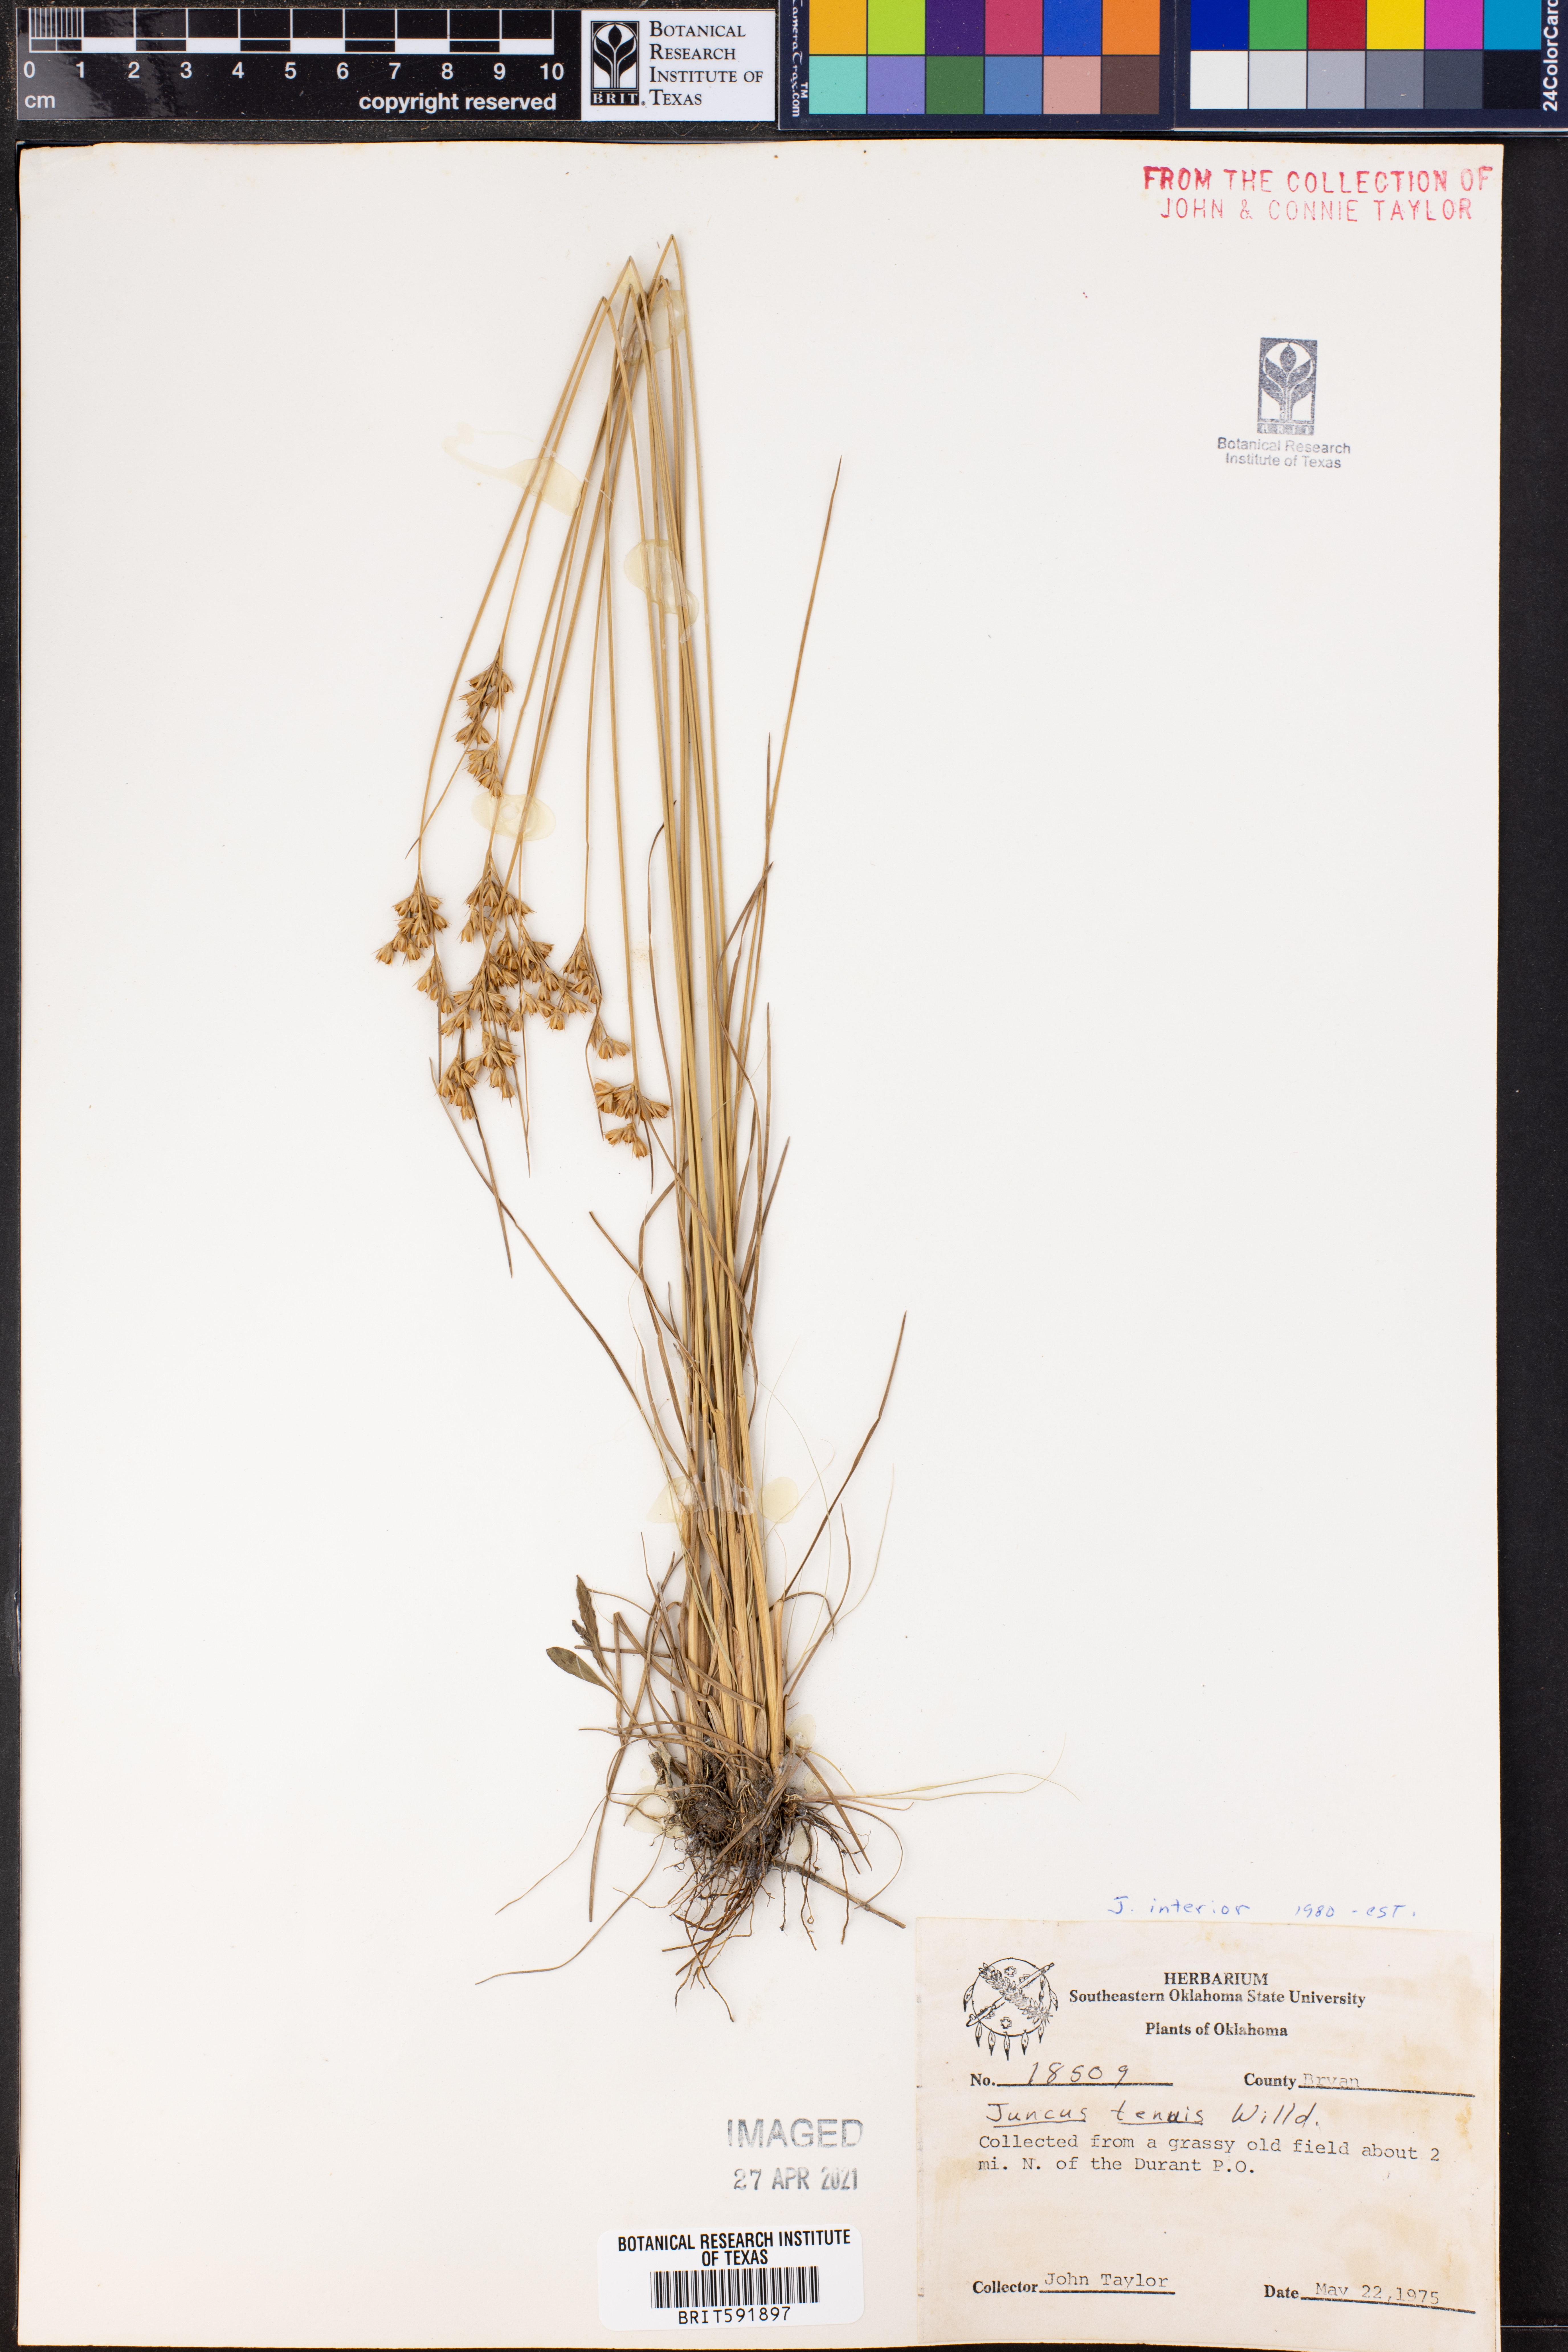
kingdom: Plantae
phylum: Tracheophyta
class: Liliopsida
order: Poales
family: Juncaceae
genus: Juncus
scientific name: Juncus interior
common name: Interior rush
